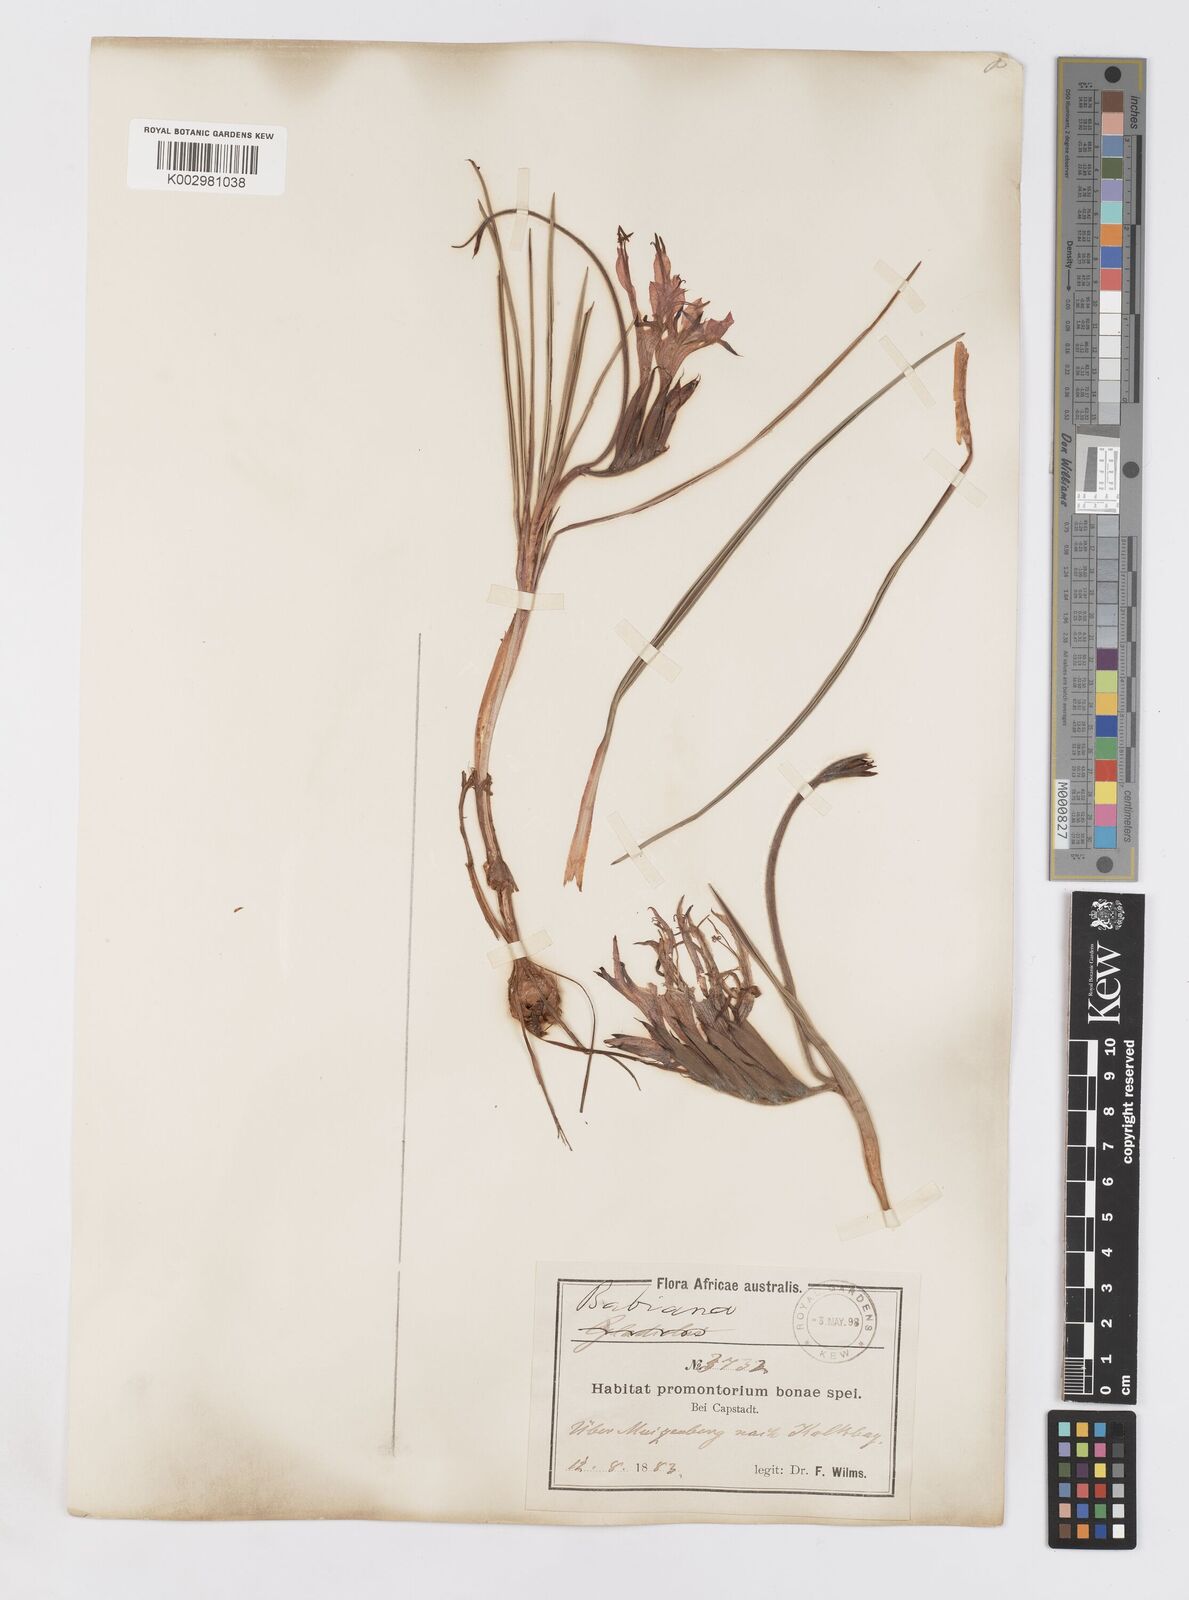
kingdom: Plantae
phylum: Tracheophyta
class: Liliopsida
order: Asparagales
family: Iridaceae
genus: Babiana
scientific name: Babiana ringens
